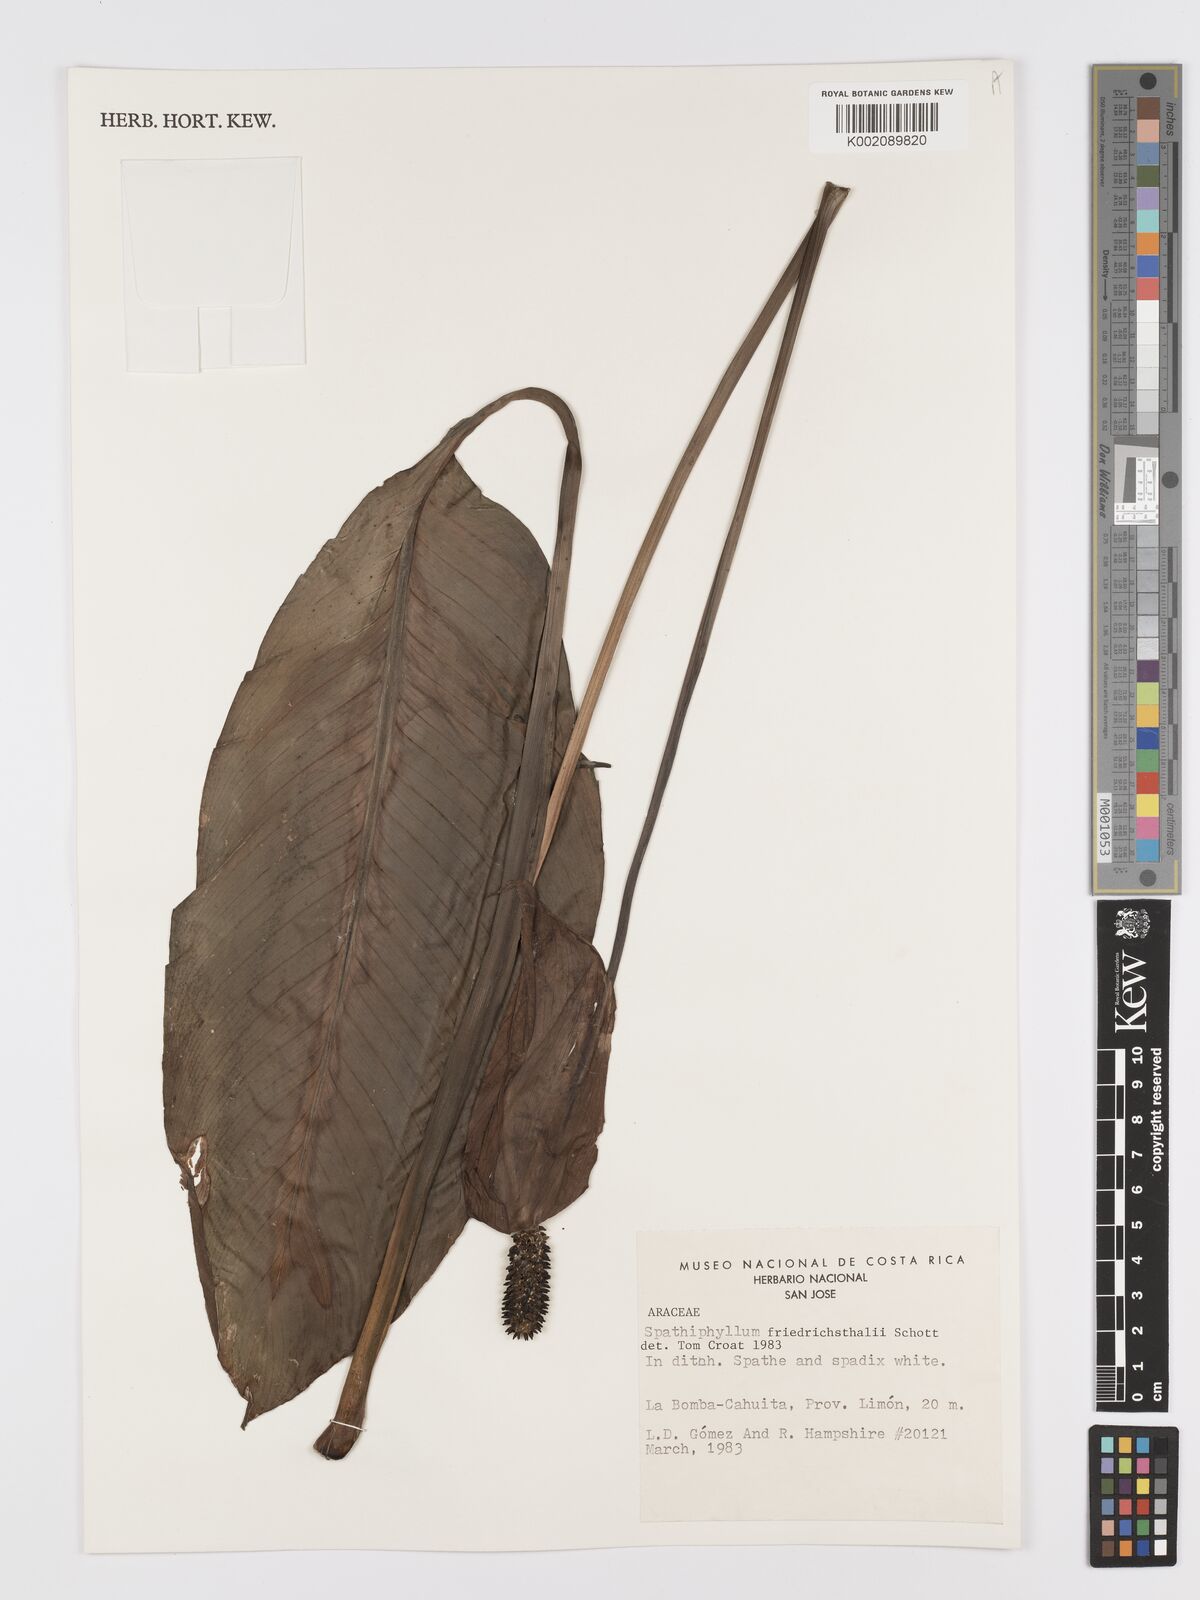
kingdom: Plantae
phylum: Tracheophyta
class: Liliopsida
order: Alismatales
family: Araceae
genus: Spathiphyllum
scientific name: Spathiphyllum friedrichsthalii
